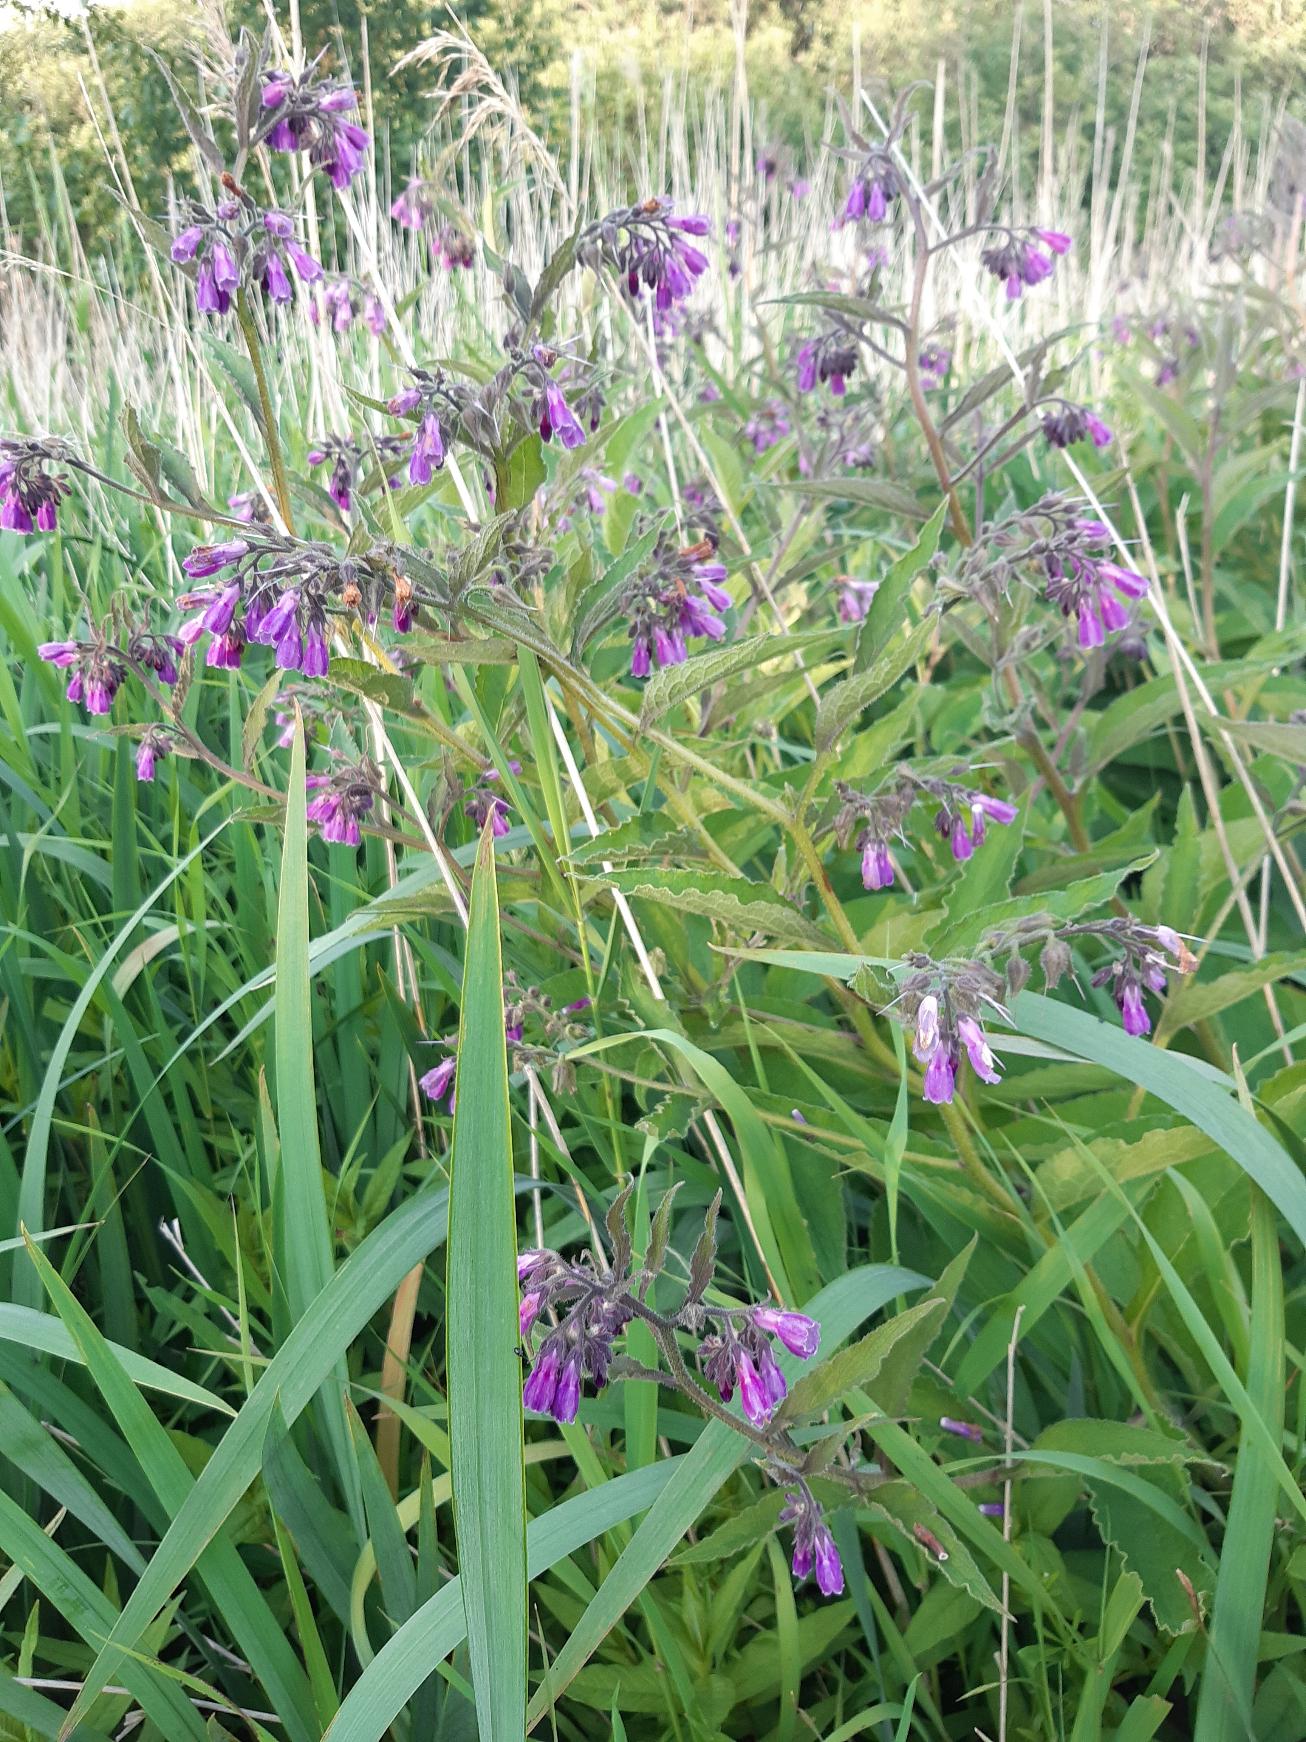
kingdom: Plantae
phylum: Tracheophyta
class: Magnoliopsida
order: Boraginales
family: Boraginaceae
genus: Symphytum
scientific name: Symphytum uplandicum
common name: Foder-kulsukker
